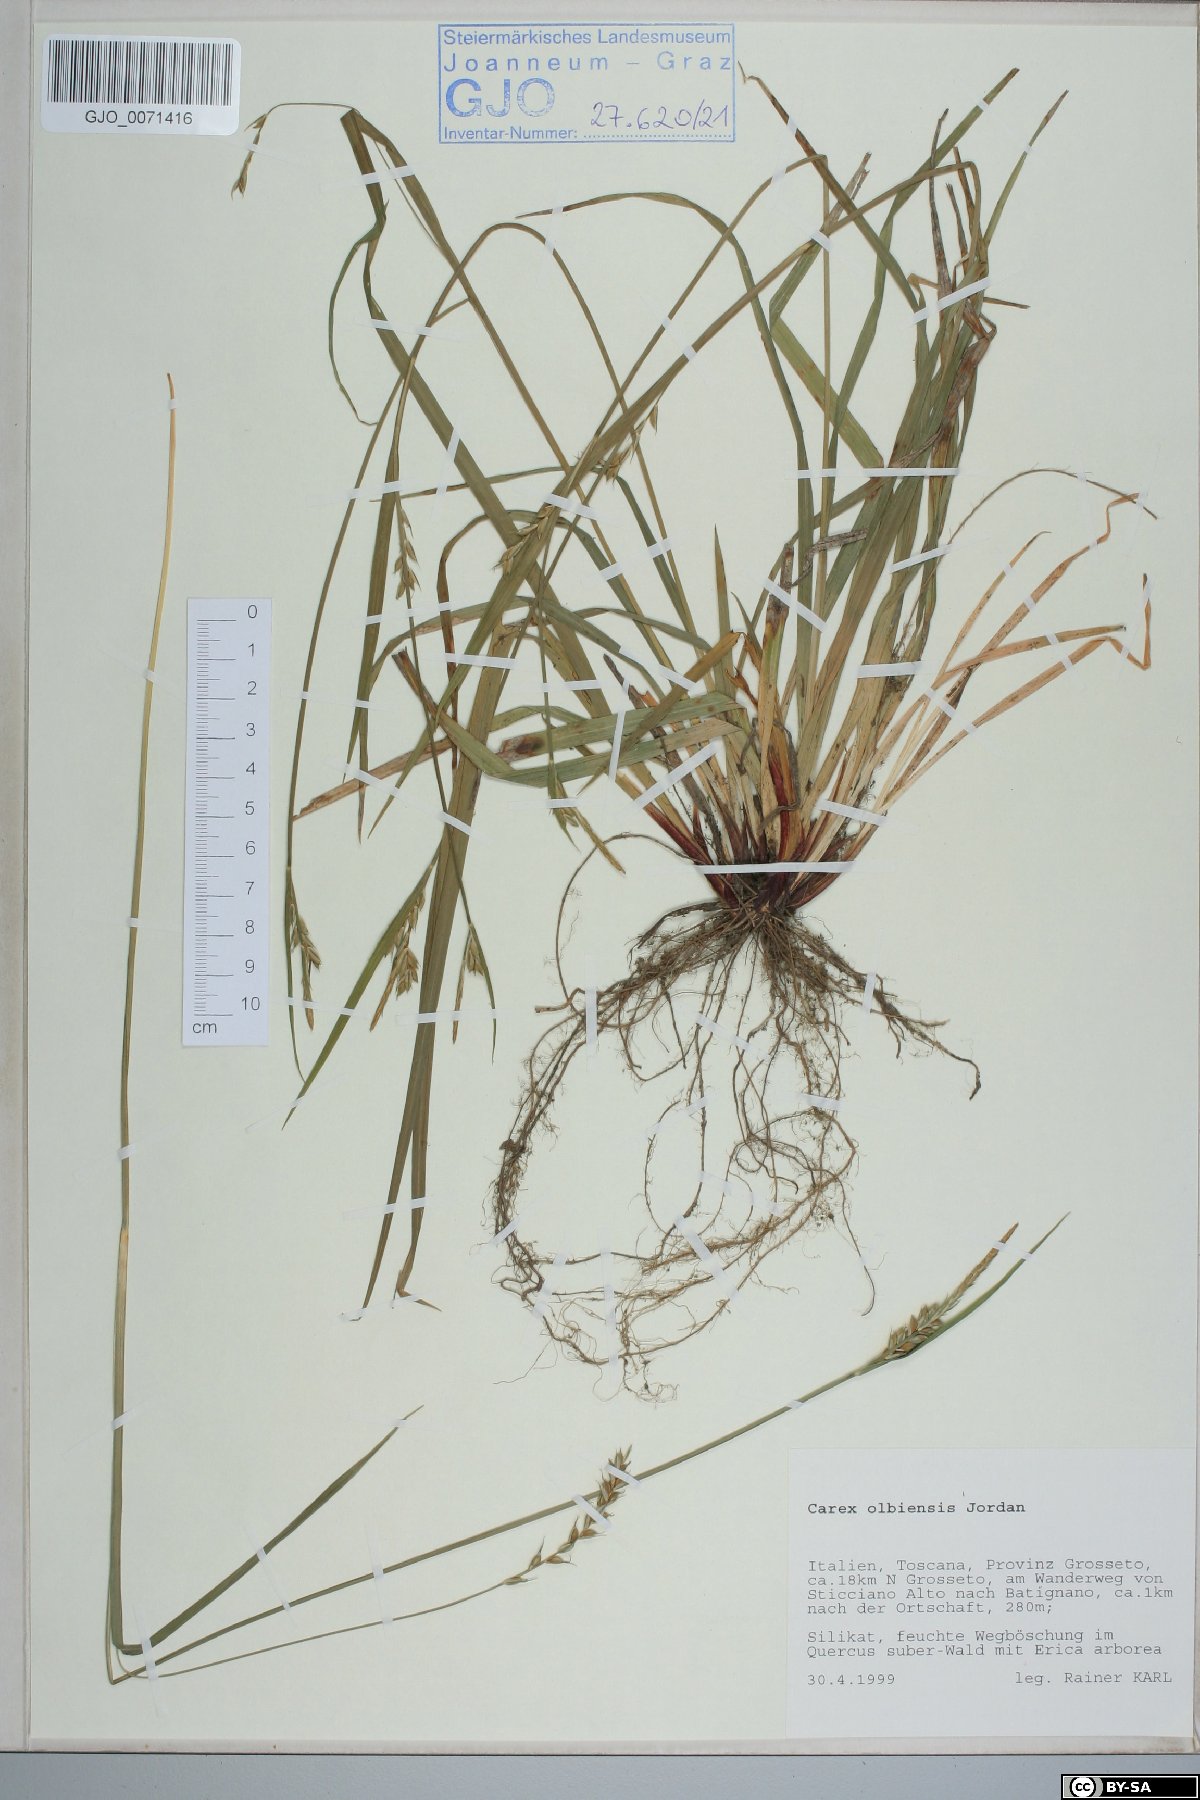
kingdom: Plantae
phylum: Tracheophyta
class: Liliopsida
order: Poales
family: Cyperaceae
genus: Carex
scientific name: Carex olbiensis
